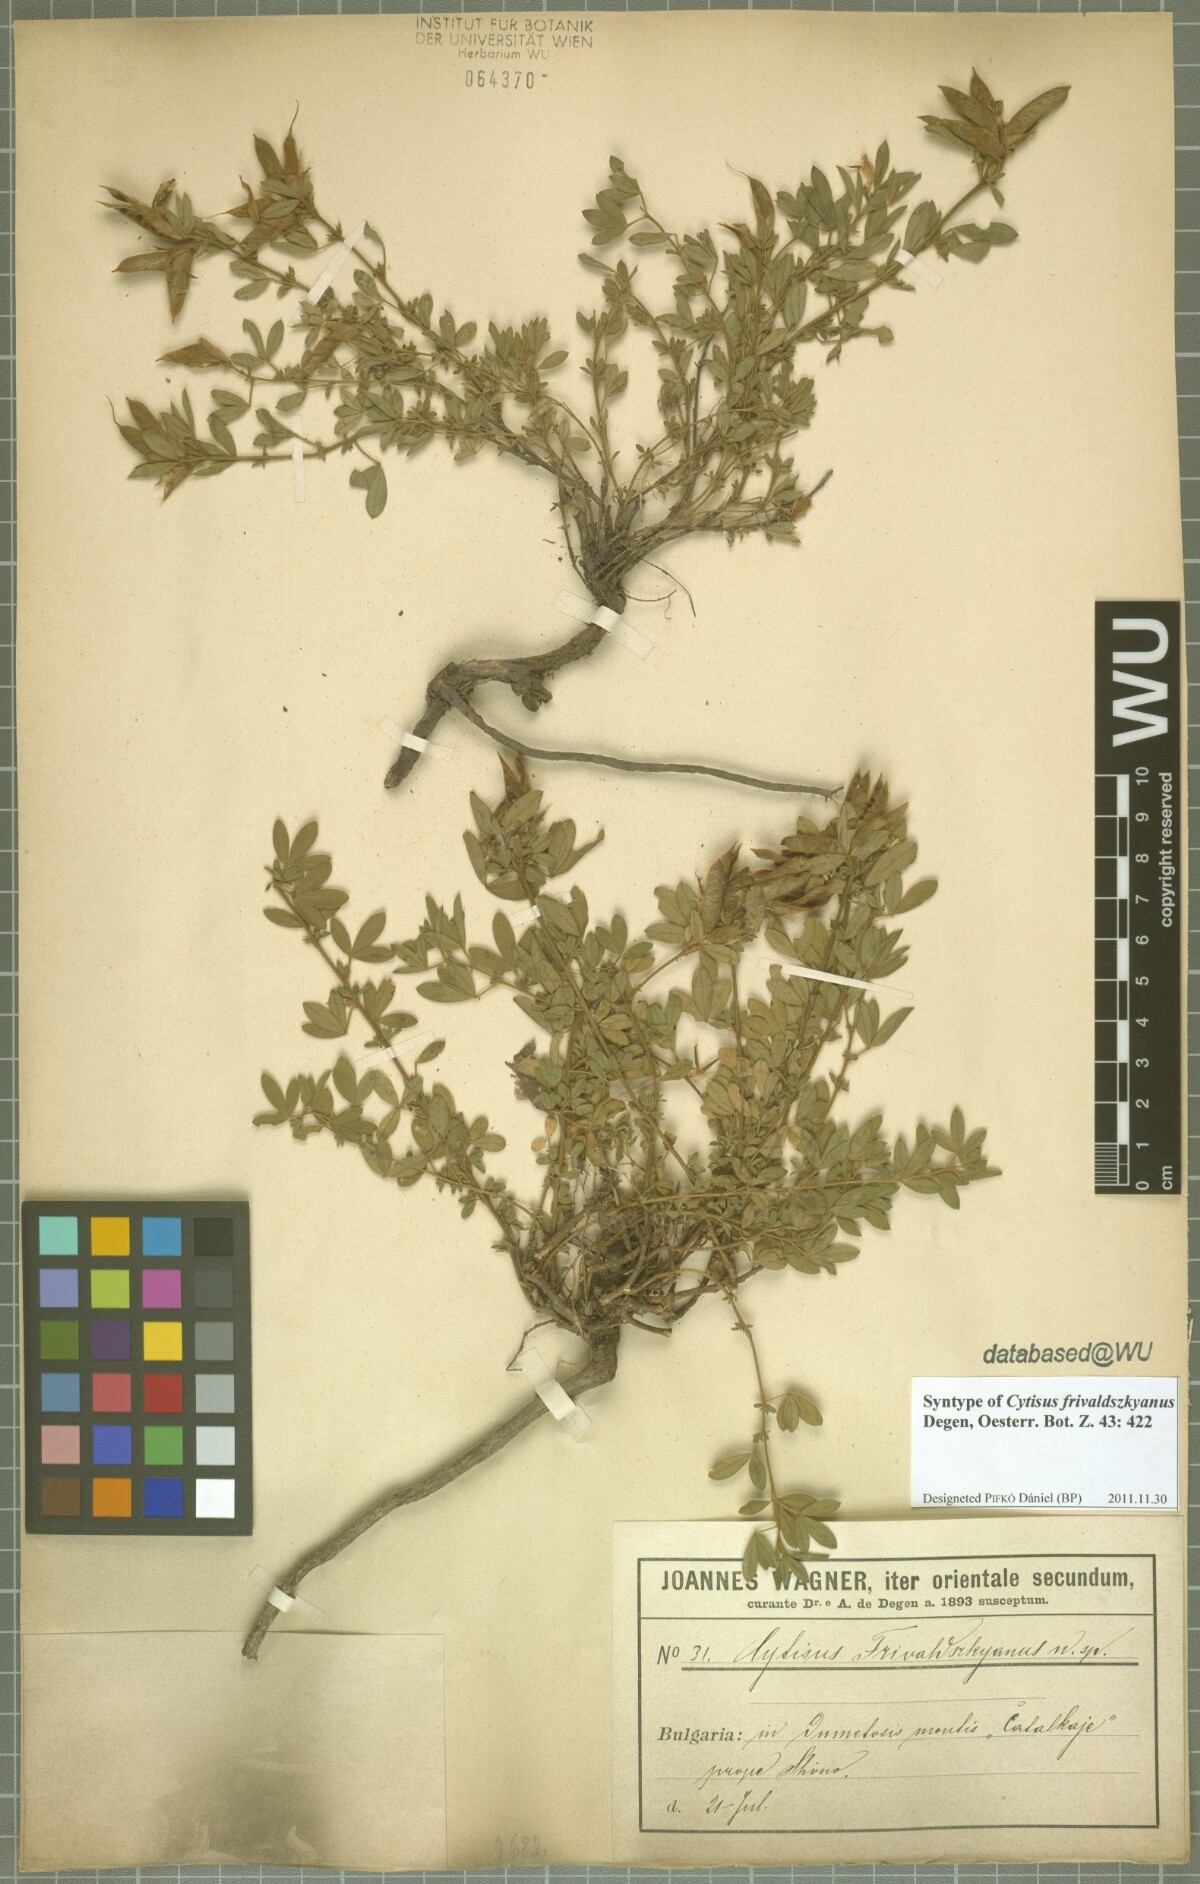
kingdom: Plantae
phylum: Tracheophyta
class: Magnoliopsida
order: Fabales
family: Fabaceae
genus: Chamaecytisus
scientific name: Chamaecytisus frivaldszkyanus
